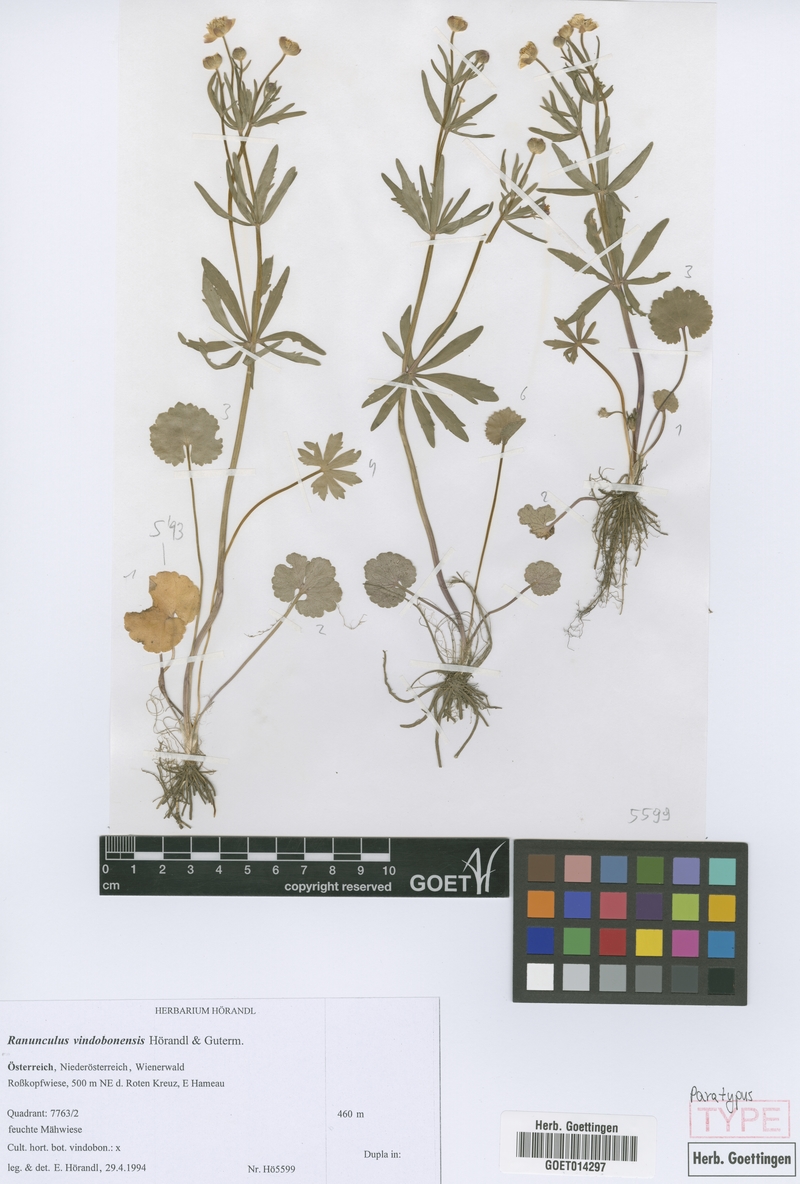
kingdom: Plantae
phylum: Tracheophyta
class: Magnoliopsida
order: Ranunculales
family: Ranunculaceae
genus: Ranunculus
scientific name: Ranunculus vindobonensis
